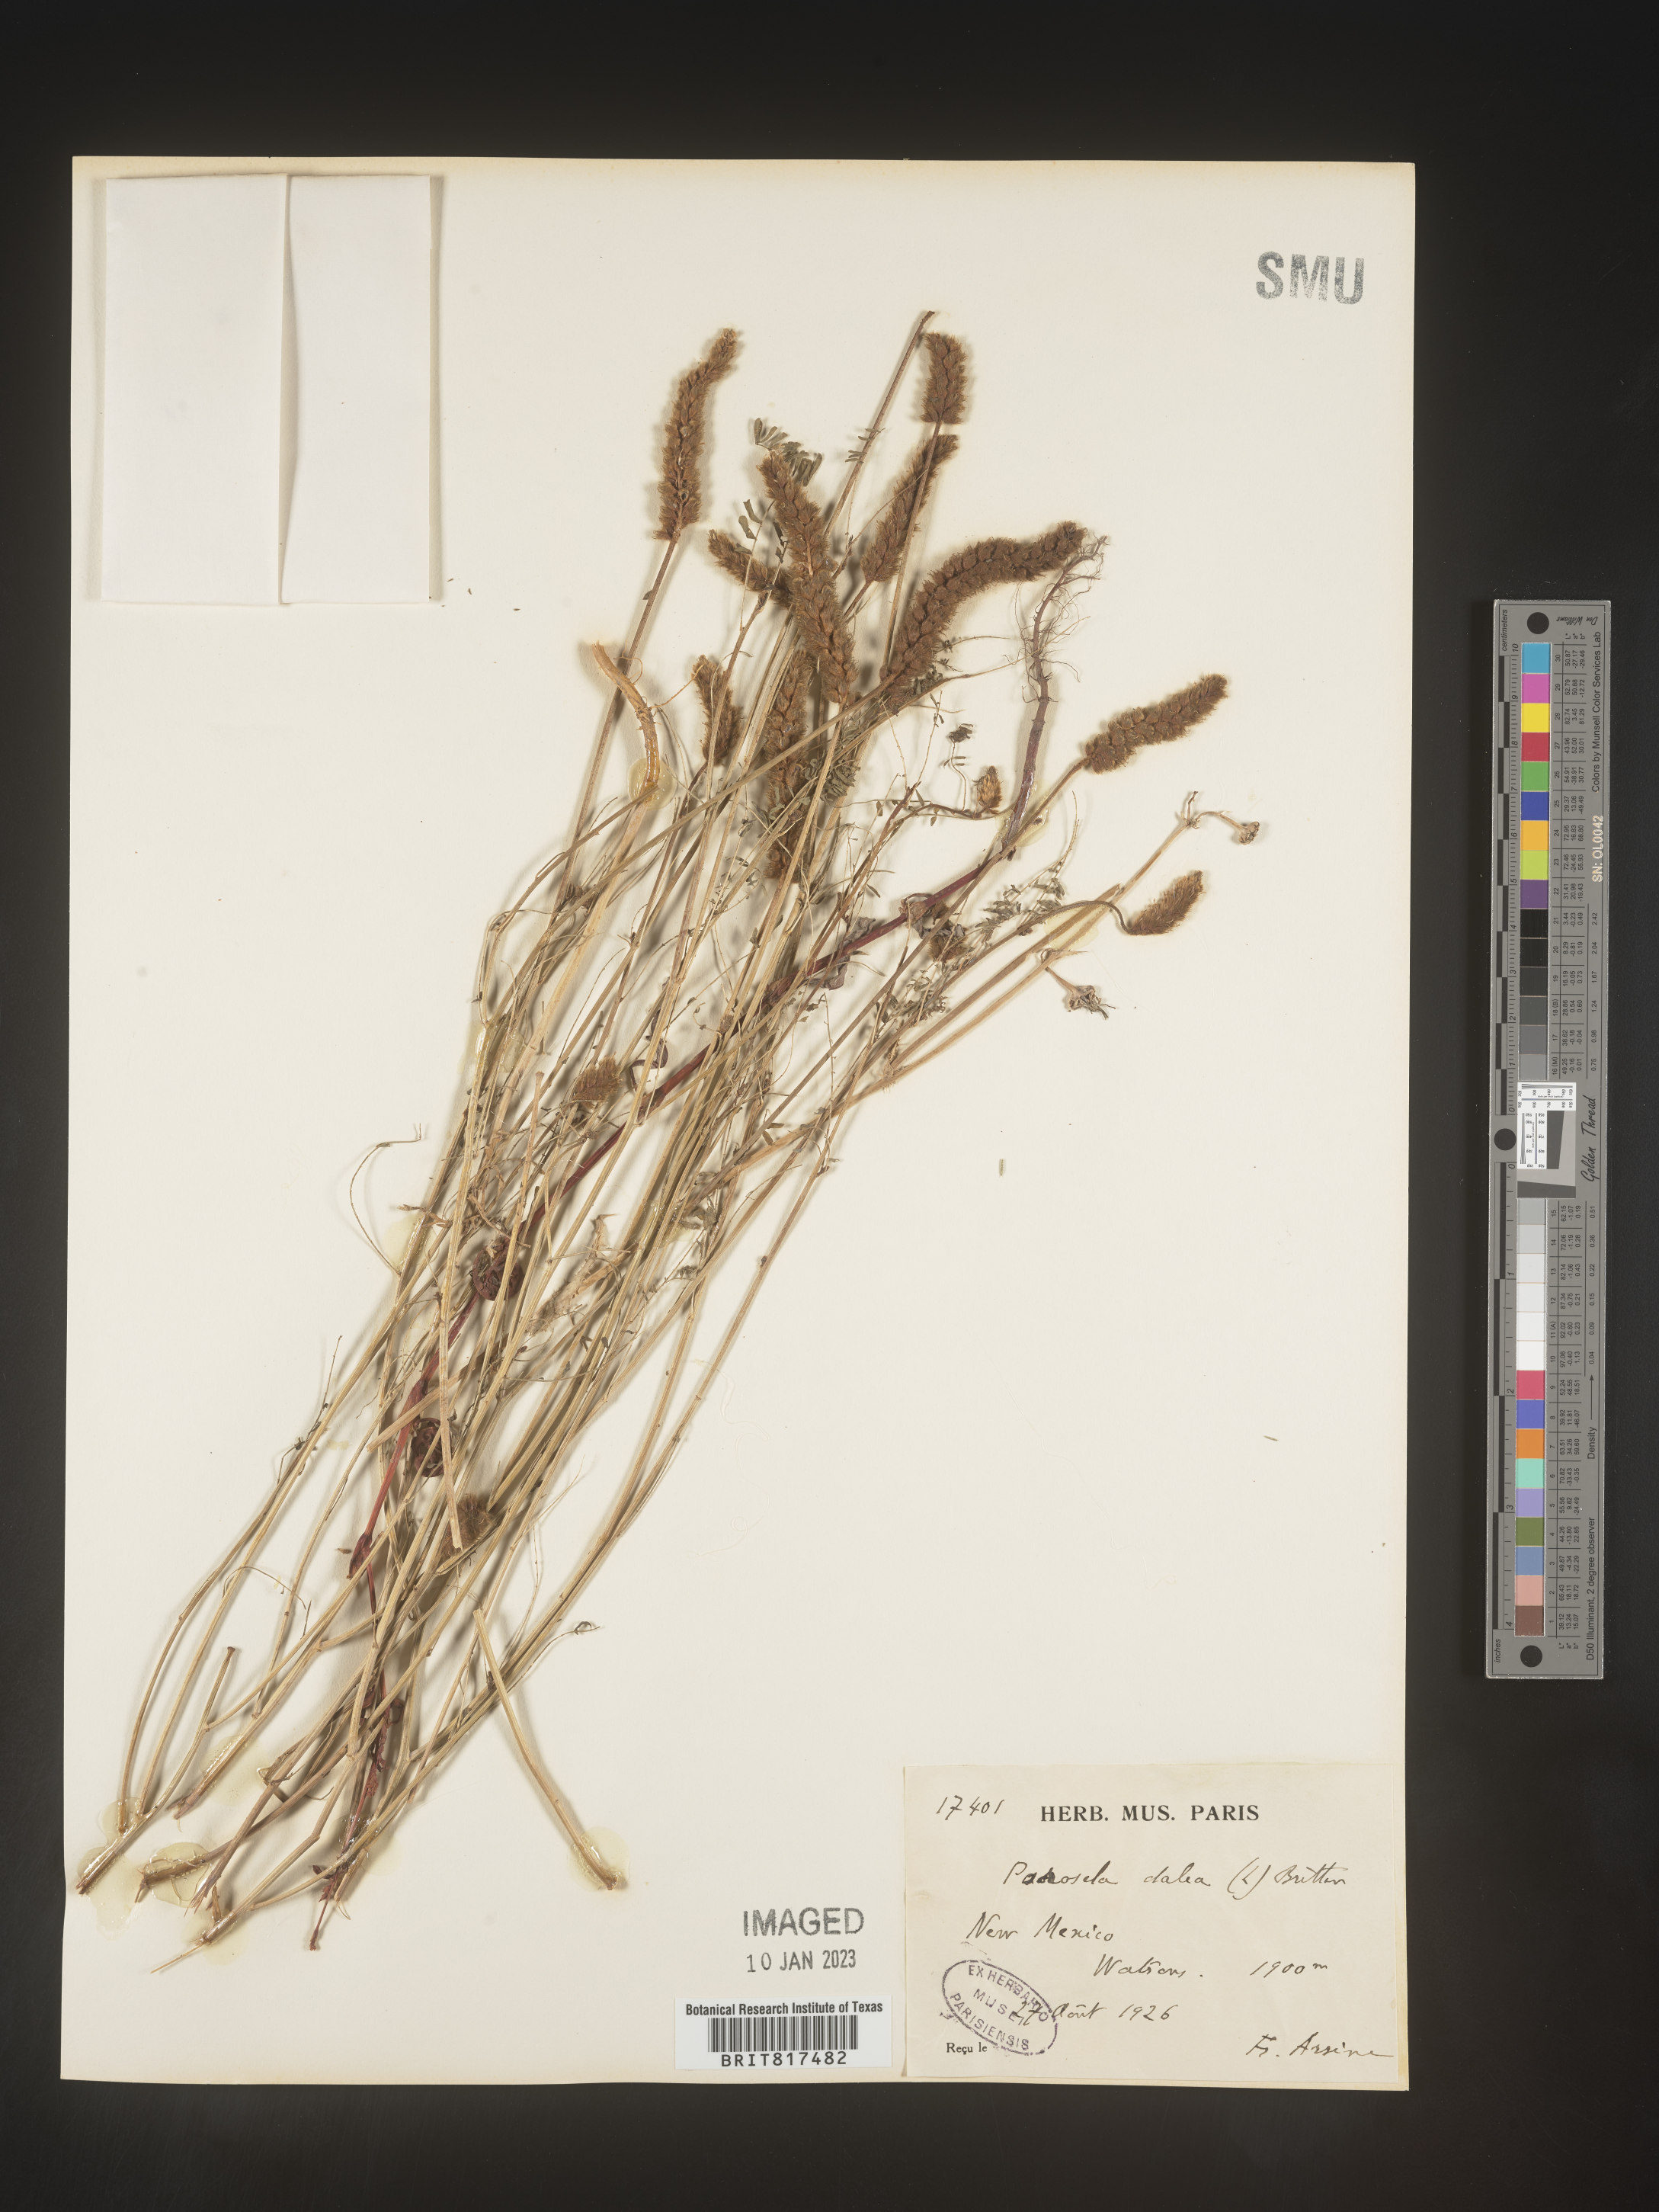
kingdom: Plantae
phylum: Tracheophyta
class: Magnoliopsida
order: Fabales
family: Fabaceae
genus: Dalea
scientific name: Dalea
